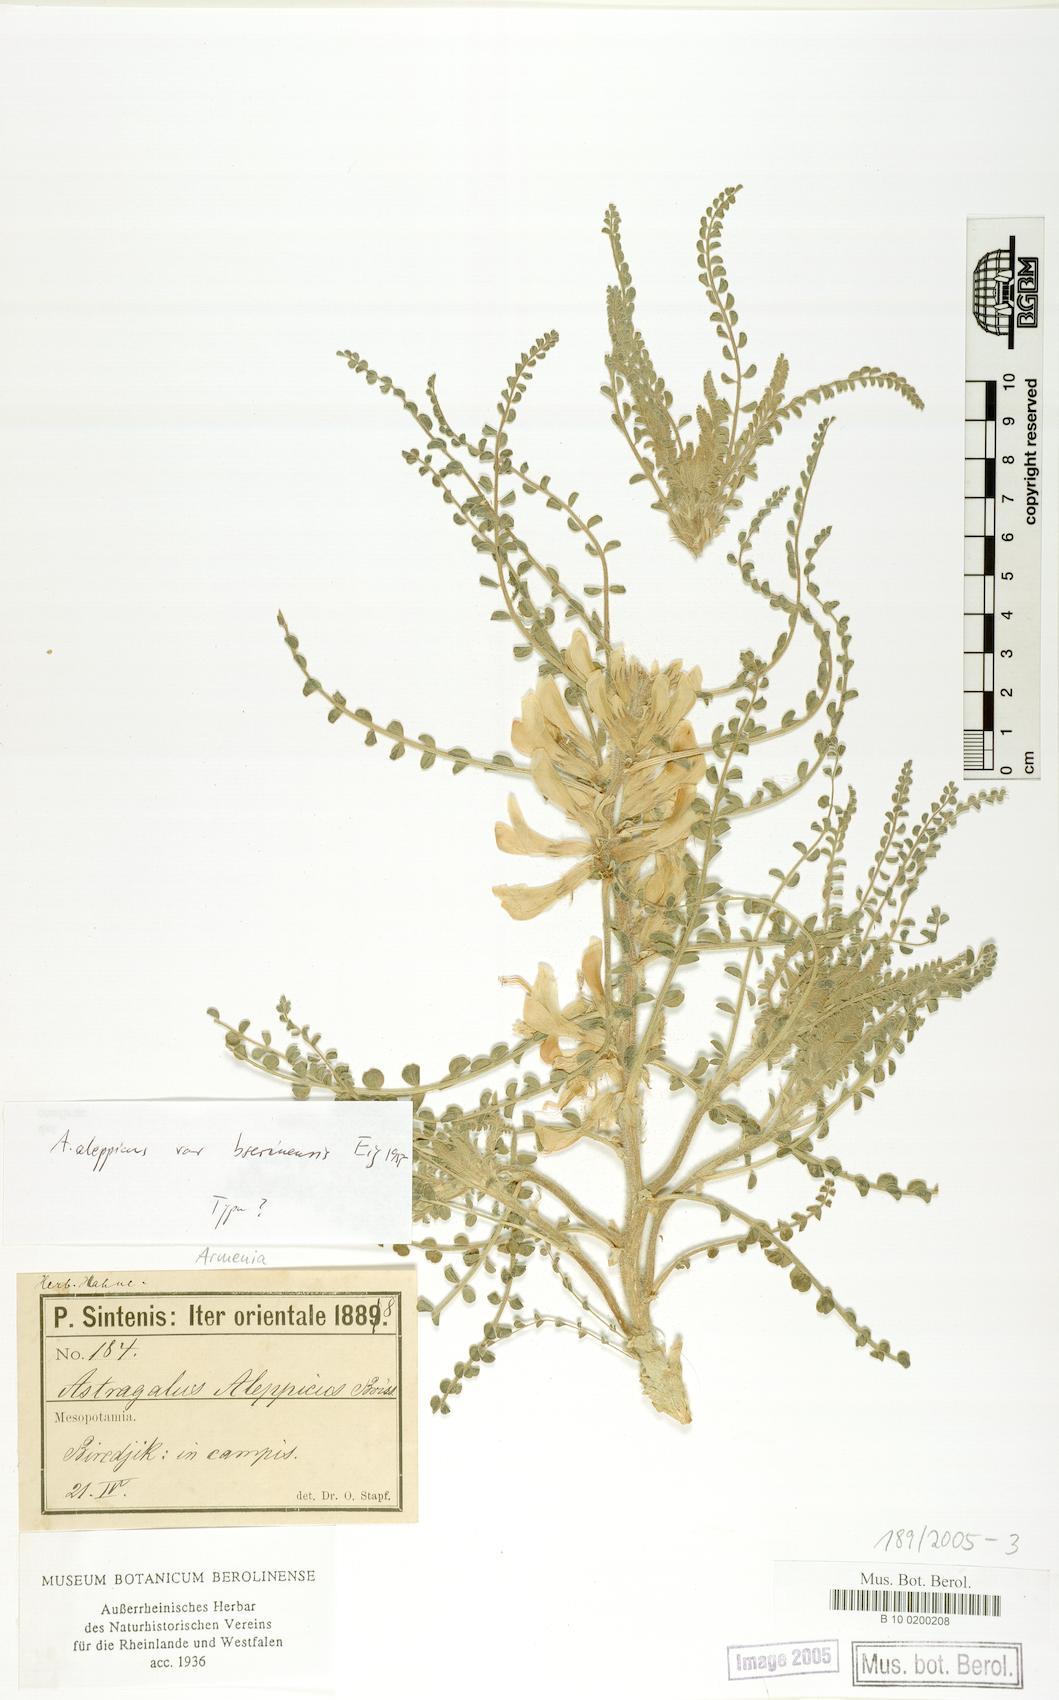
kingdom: Plantae
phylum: Tracheophyta
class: Magnoliopsida
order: Fabales
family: Fabaceae
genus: Astragalus
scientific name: Astragalus aleppicus
